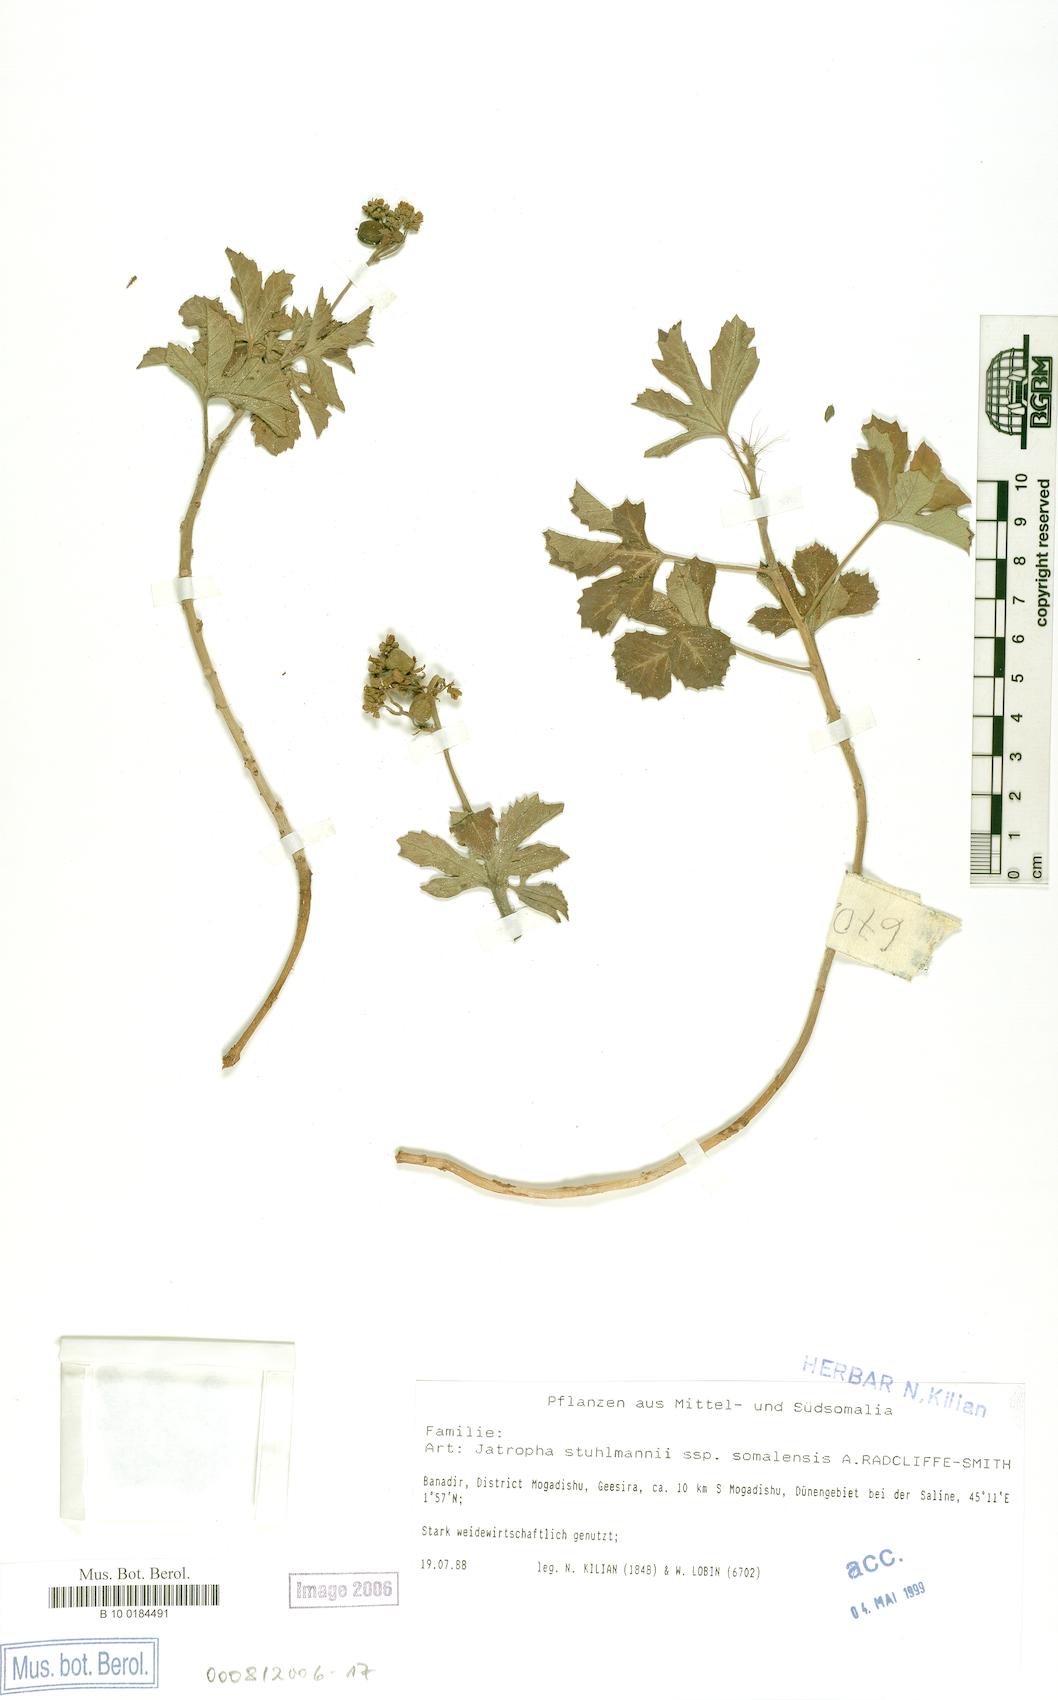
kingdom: Plantae
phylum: Tracheophyta
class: Magnoliopsida
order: Malpighiales
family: Euphorbiaceae
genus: Jatropha
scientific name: Jatropha stuhlmannii
